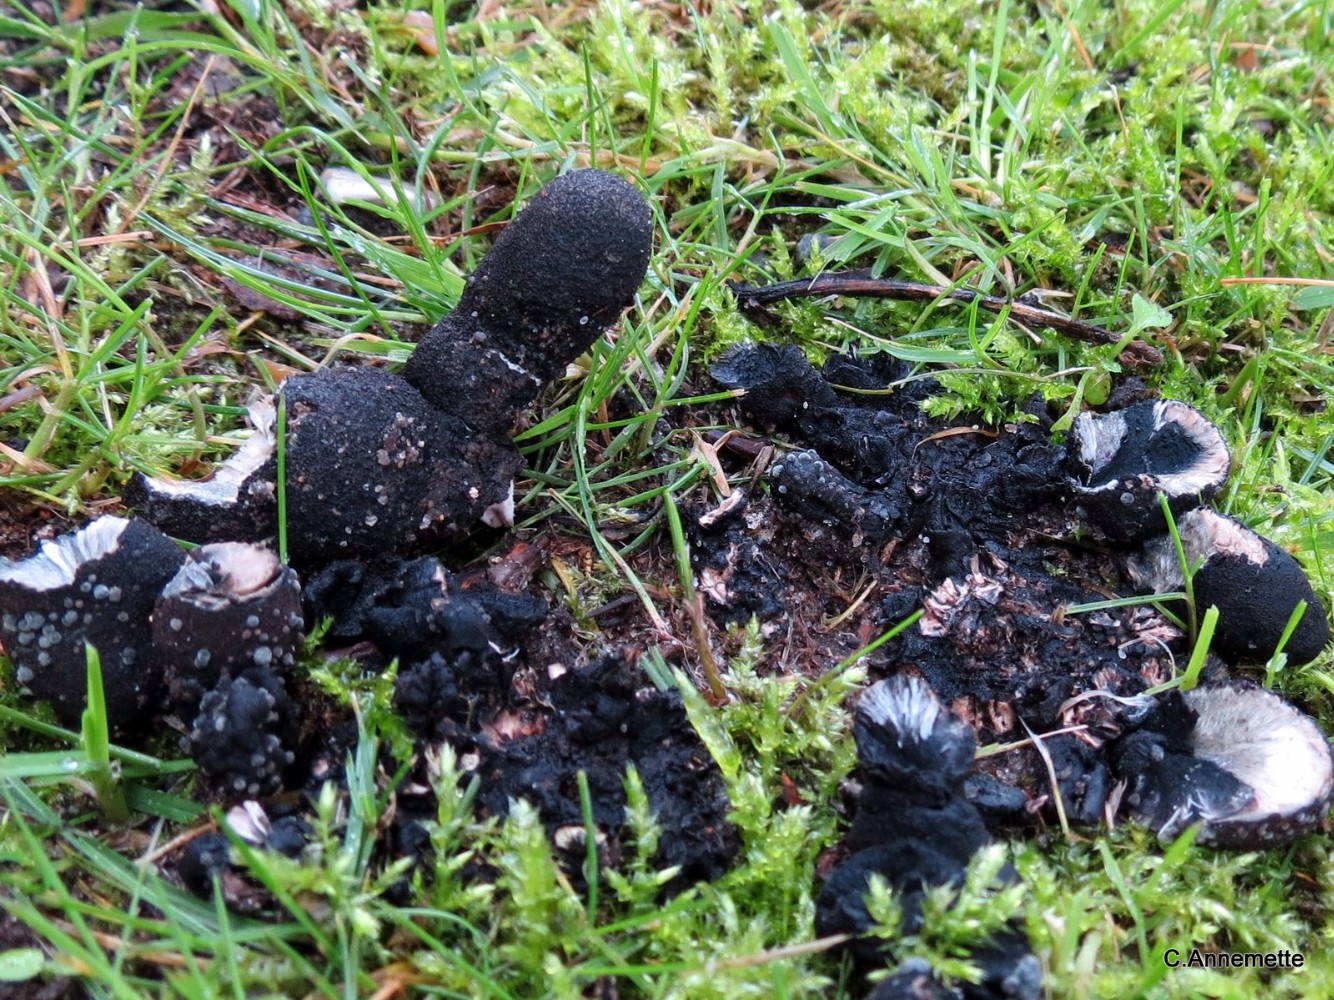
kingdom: Fungi
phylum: Ascomycota
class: Sordariomycetes
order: Xylariales
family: Xylariaceae
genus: Xylaria
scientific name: Xylaria polymorpha
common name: kølle-stødsvamp
